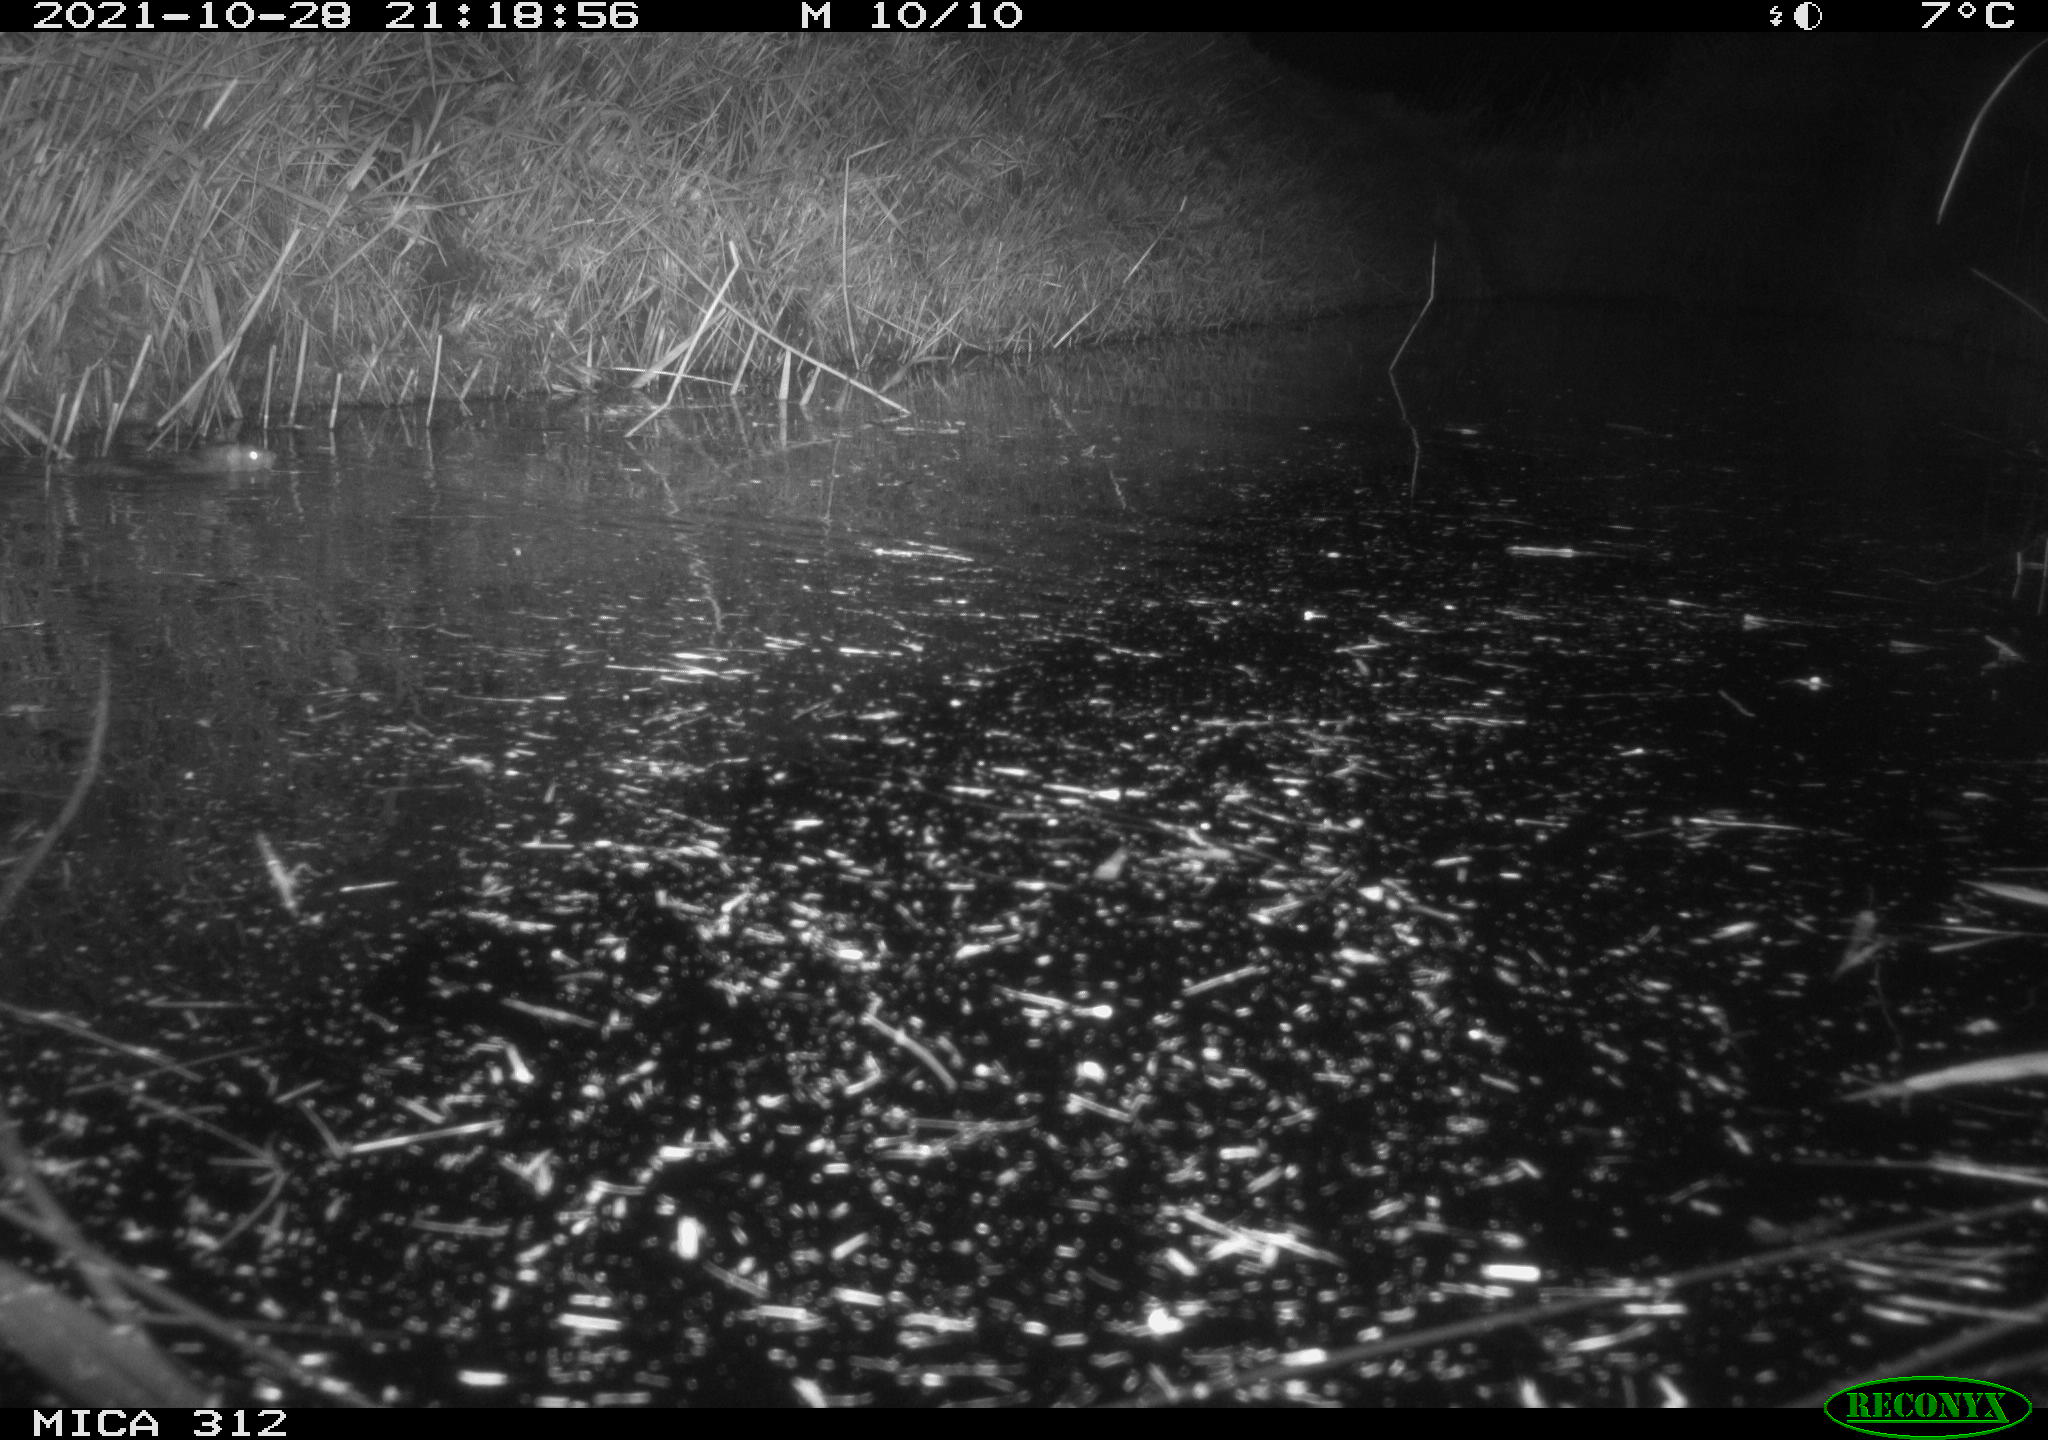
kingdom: Animalia
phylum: Chordata
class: Mammalia
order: Rodentia
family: Muridae
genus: Rattus
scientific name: Rattus norvegicus
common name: Brown rat
